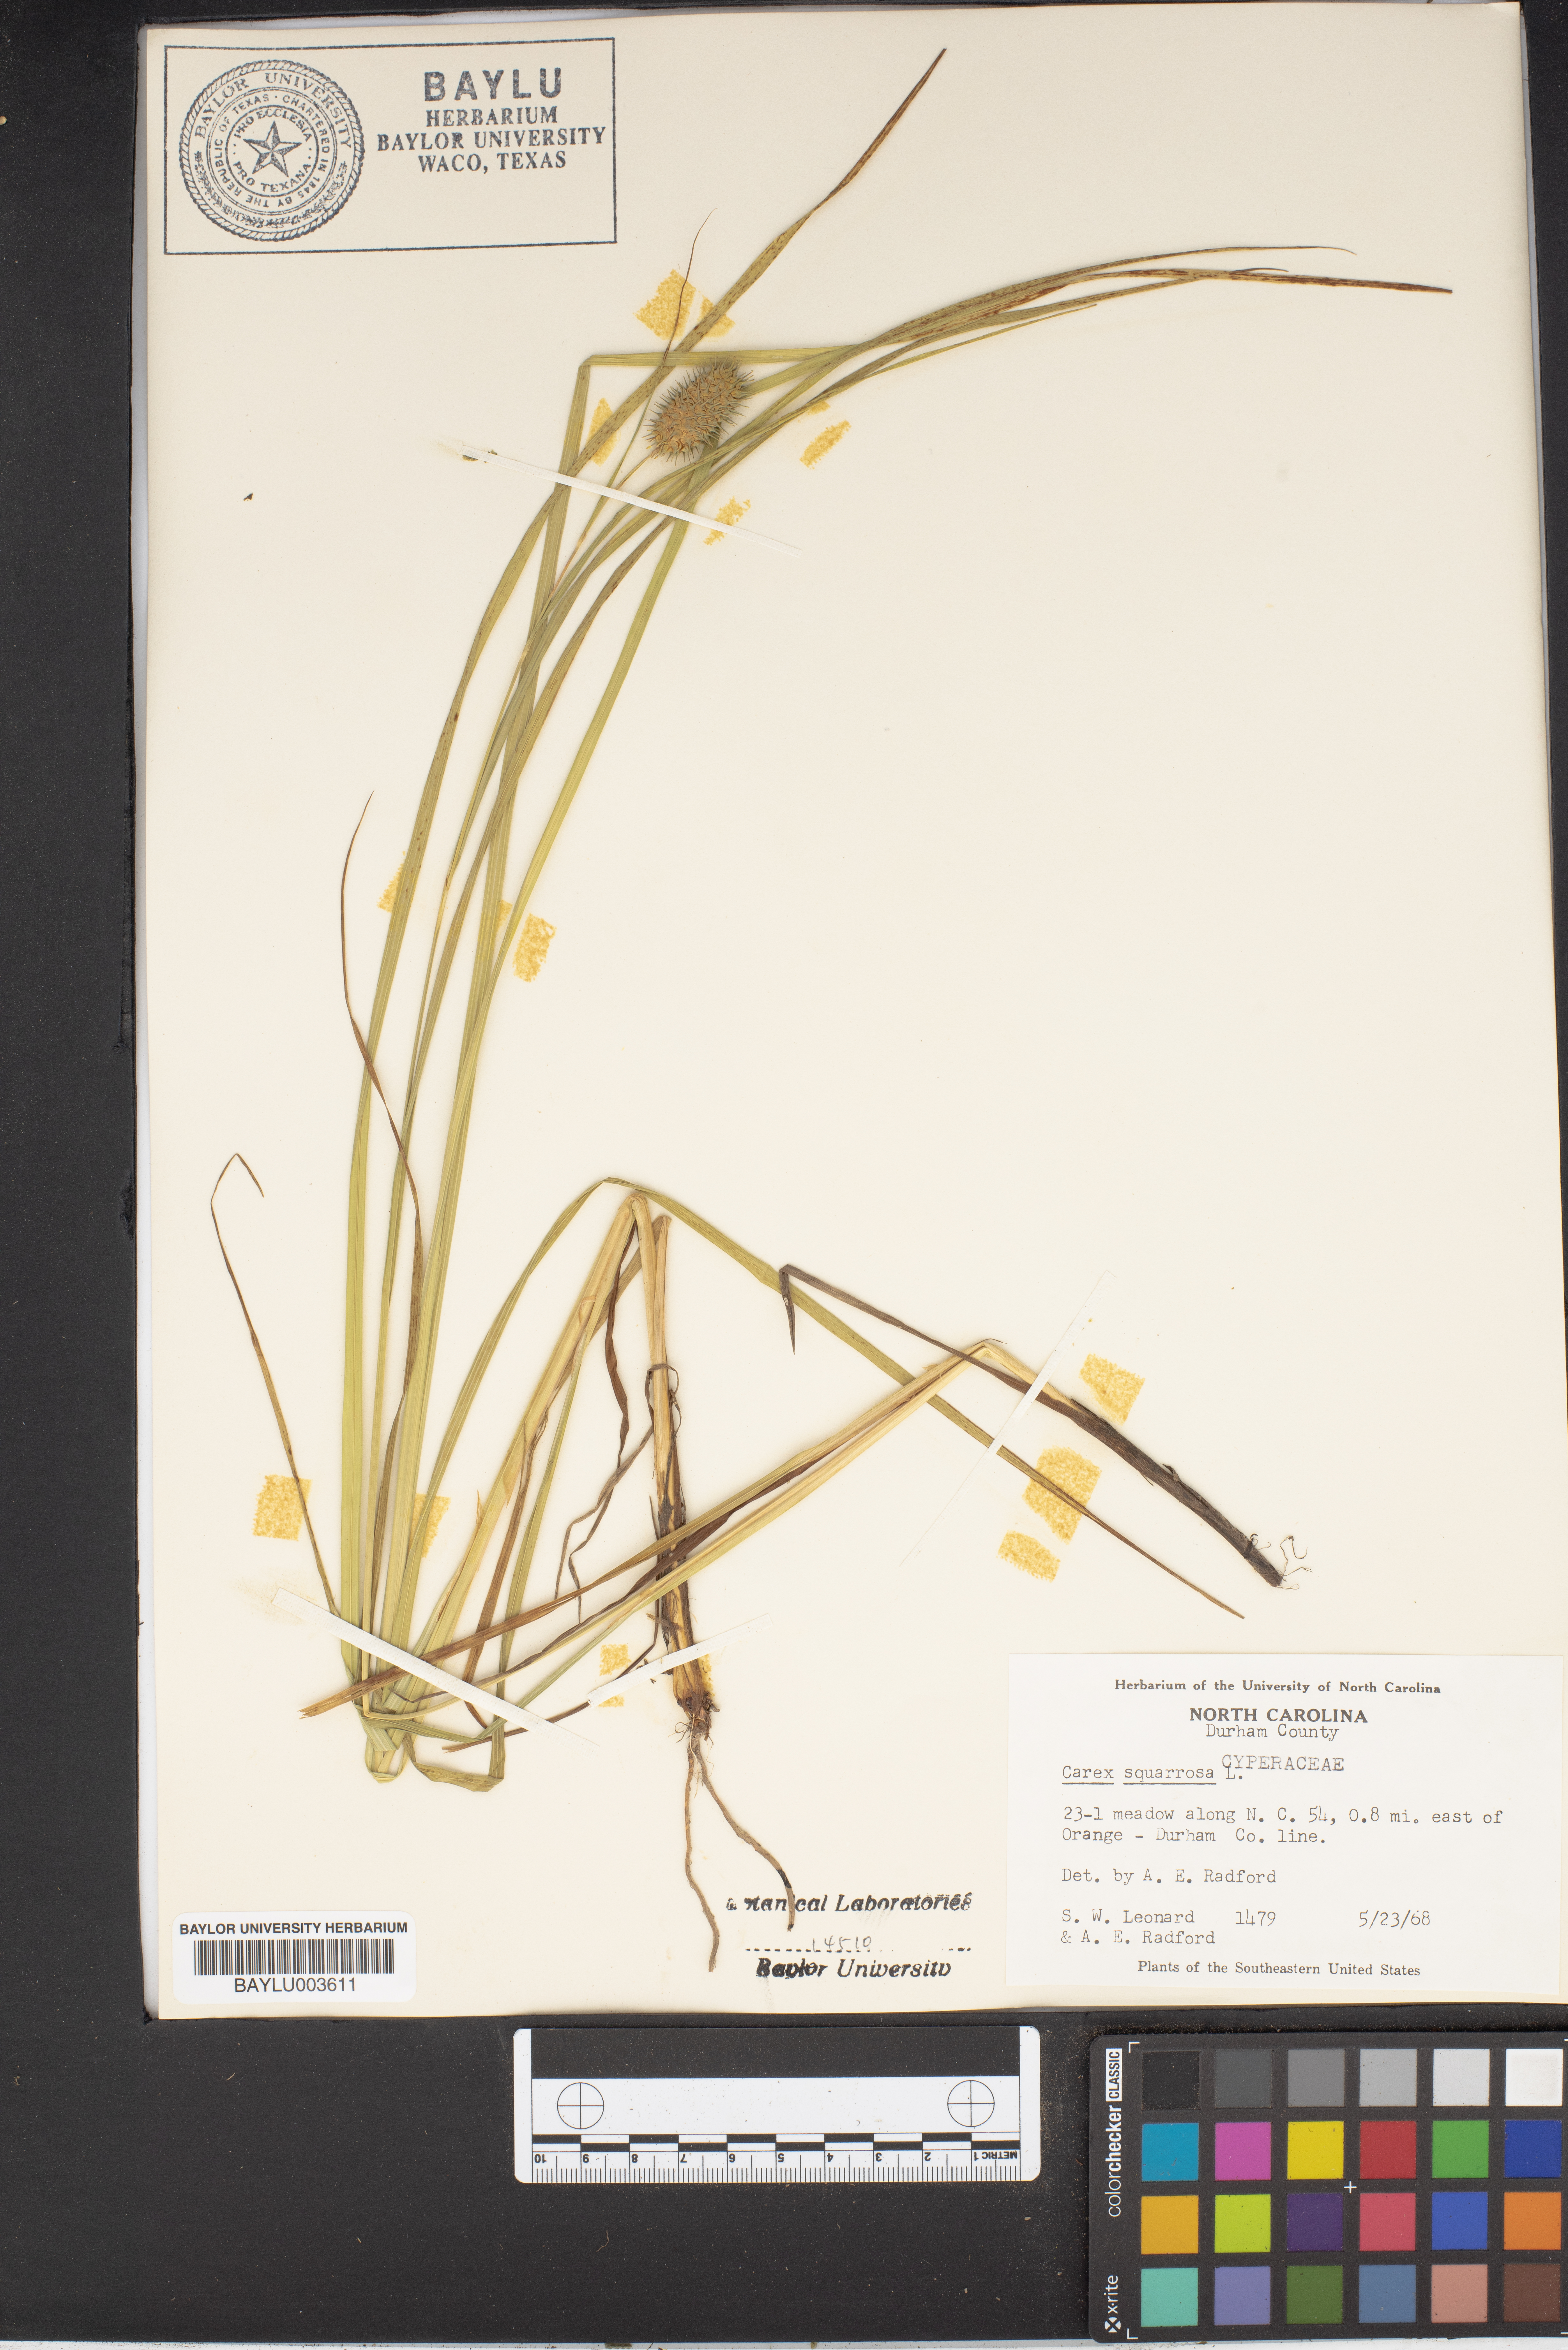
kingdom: Plantae
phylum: Tracheophyta
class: Liliopsida
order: Poales
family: Cyperaceae
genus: Carex
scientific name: Carex squarrosa
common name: Narrow-leaved cattail sedge
